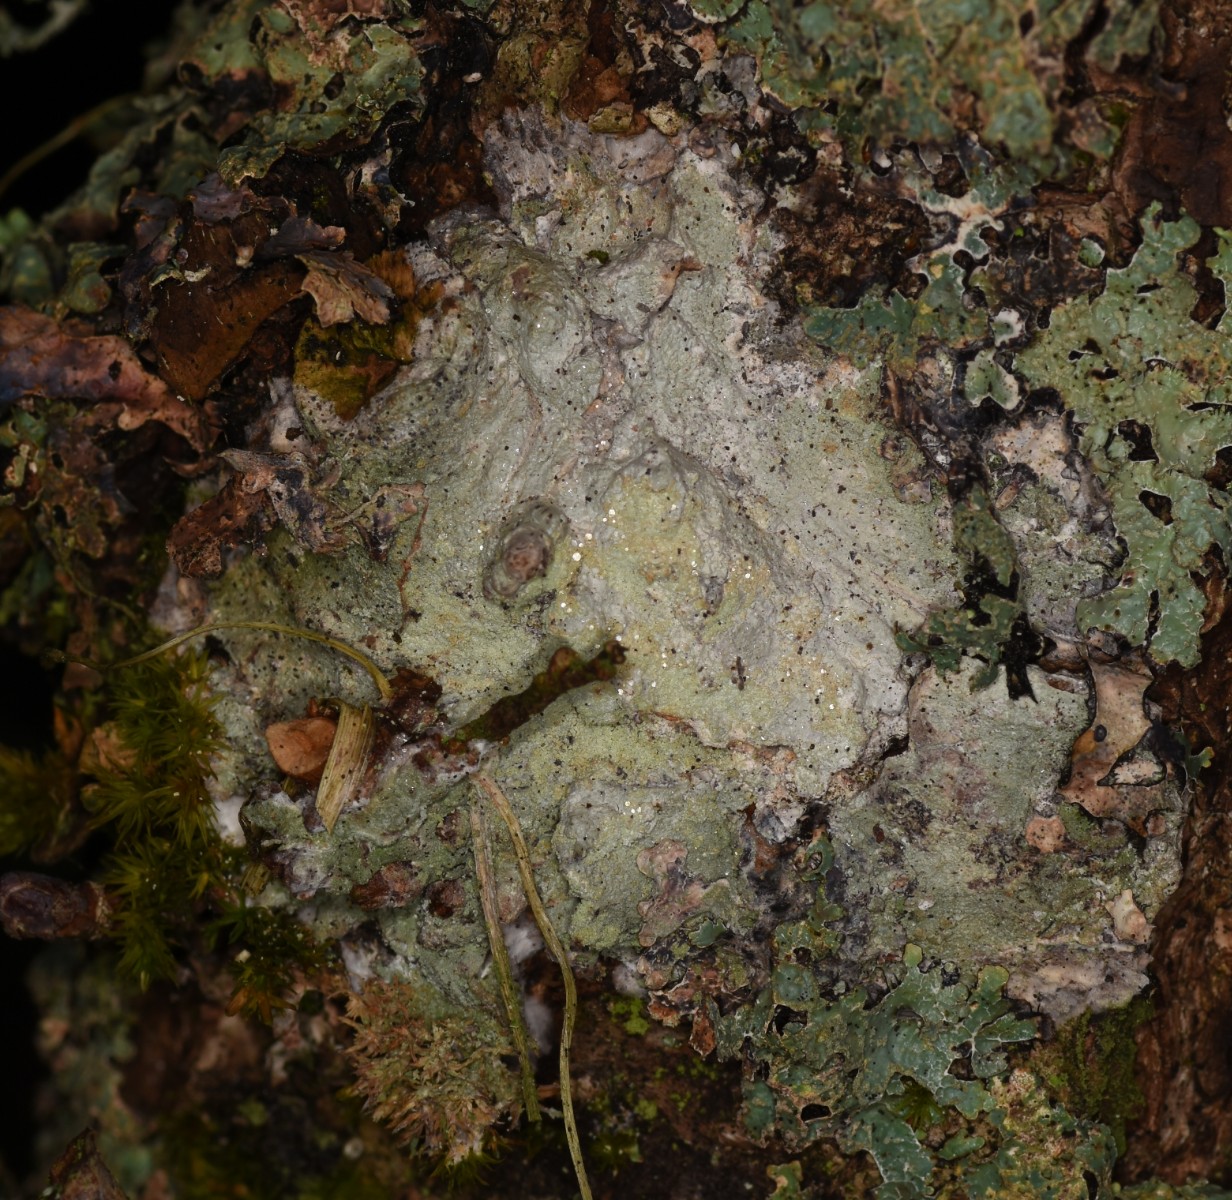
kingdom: Fungi
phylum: Ascomycota
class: Lecanoromycetes
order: Ostropales
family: Phlyctidaceae
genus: Phlyctis
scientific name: Phlyctis argena
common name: almindelig sølvlav
